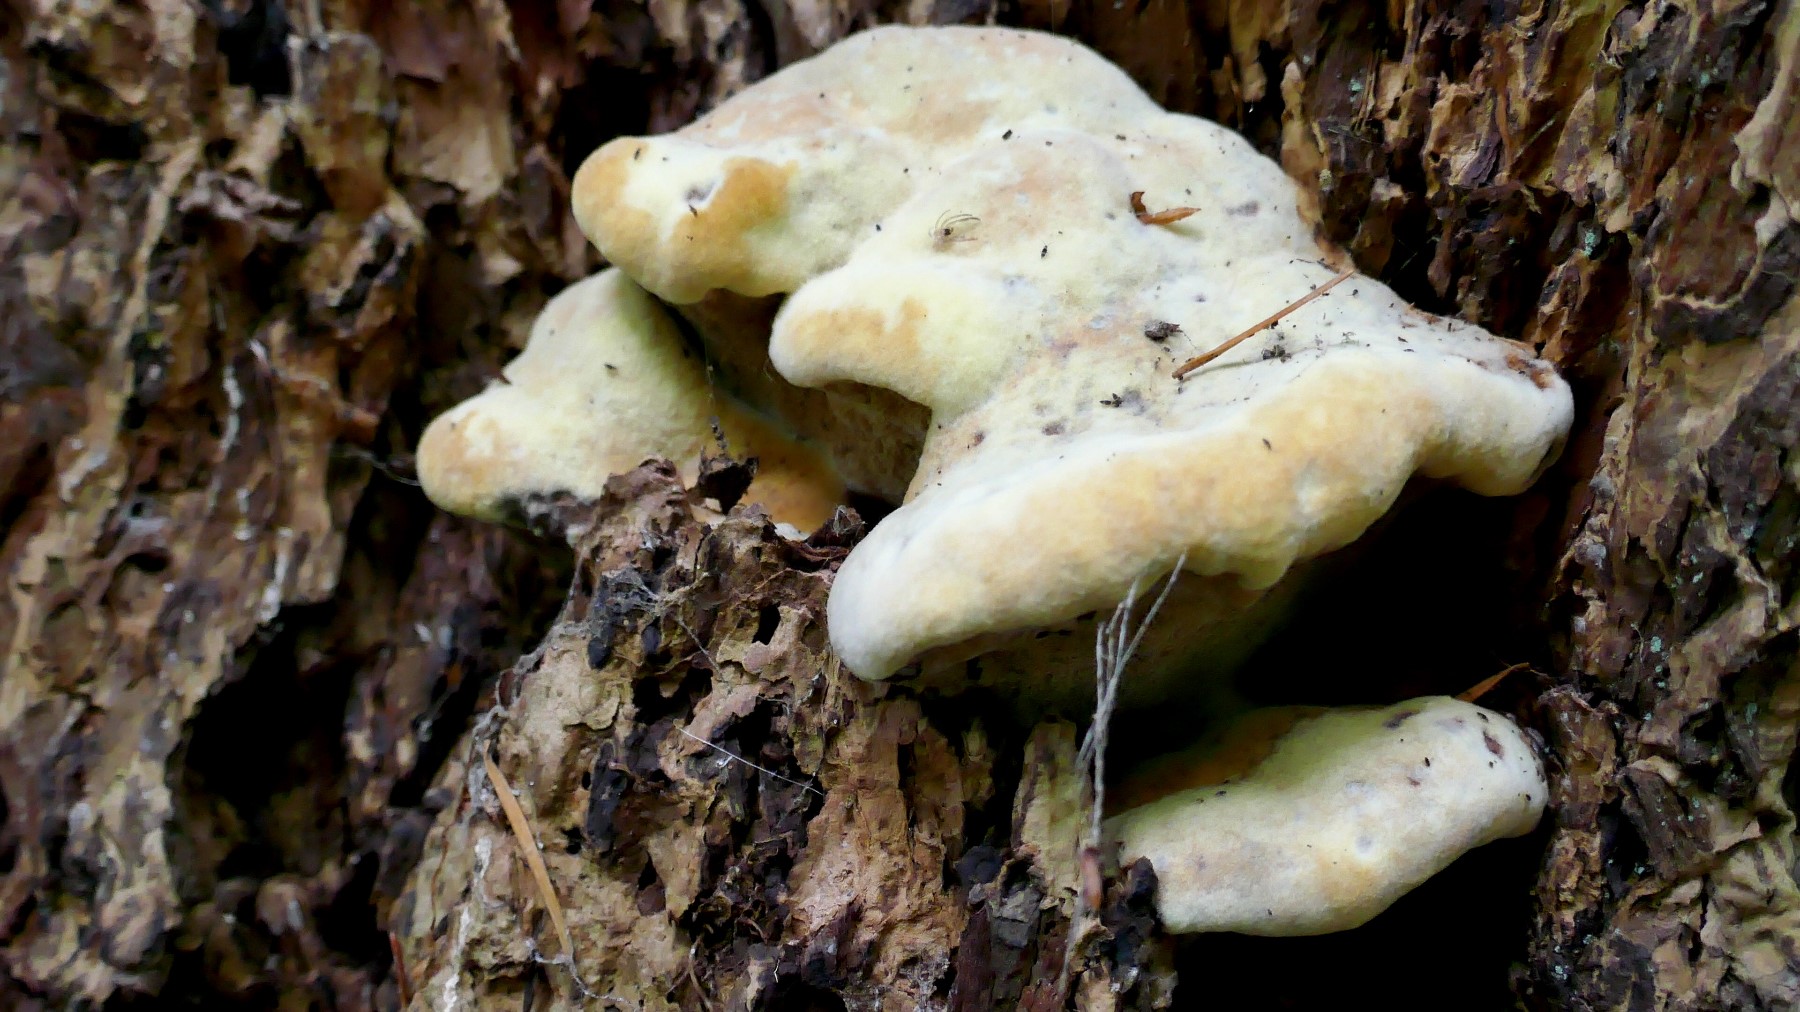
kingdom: Fungi
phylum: Basidiomycota
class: Agaricomycetes
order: Polyporales
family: Laetiporaceae
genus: Phaeolus
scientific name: Phaeolus schweinitzii
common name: brunporesvamp
